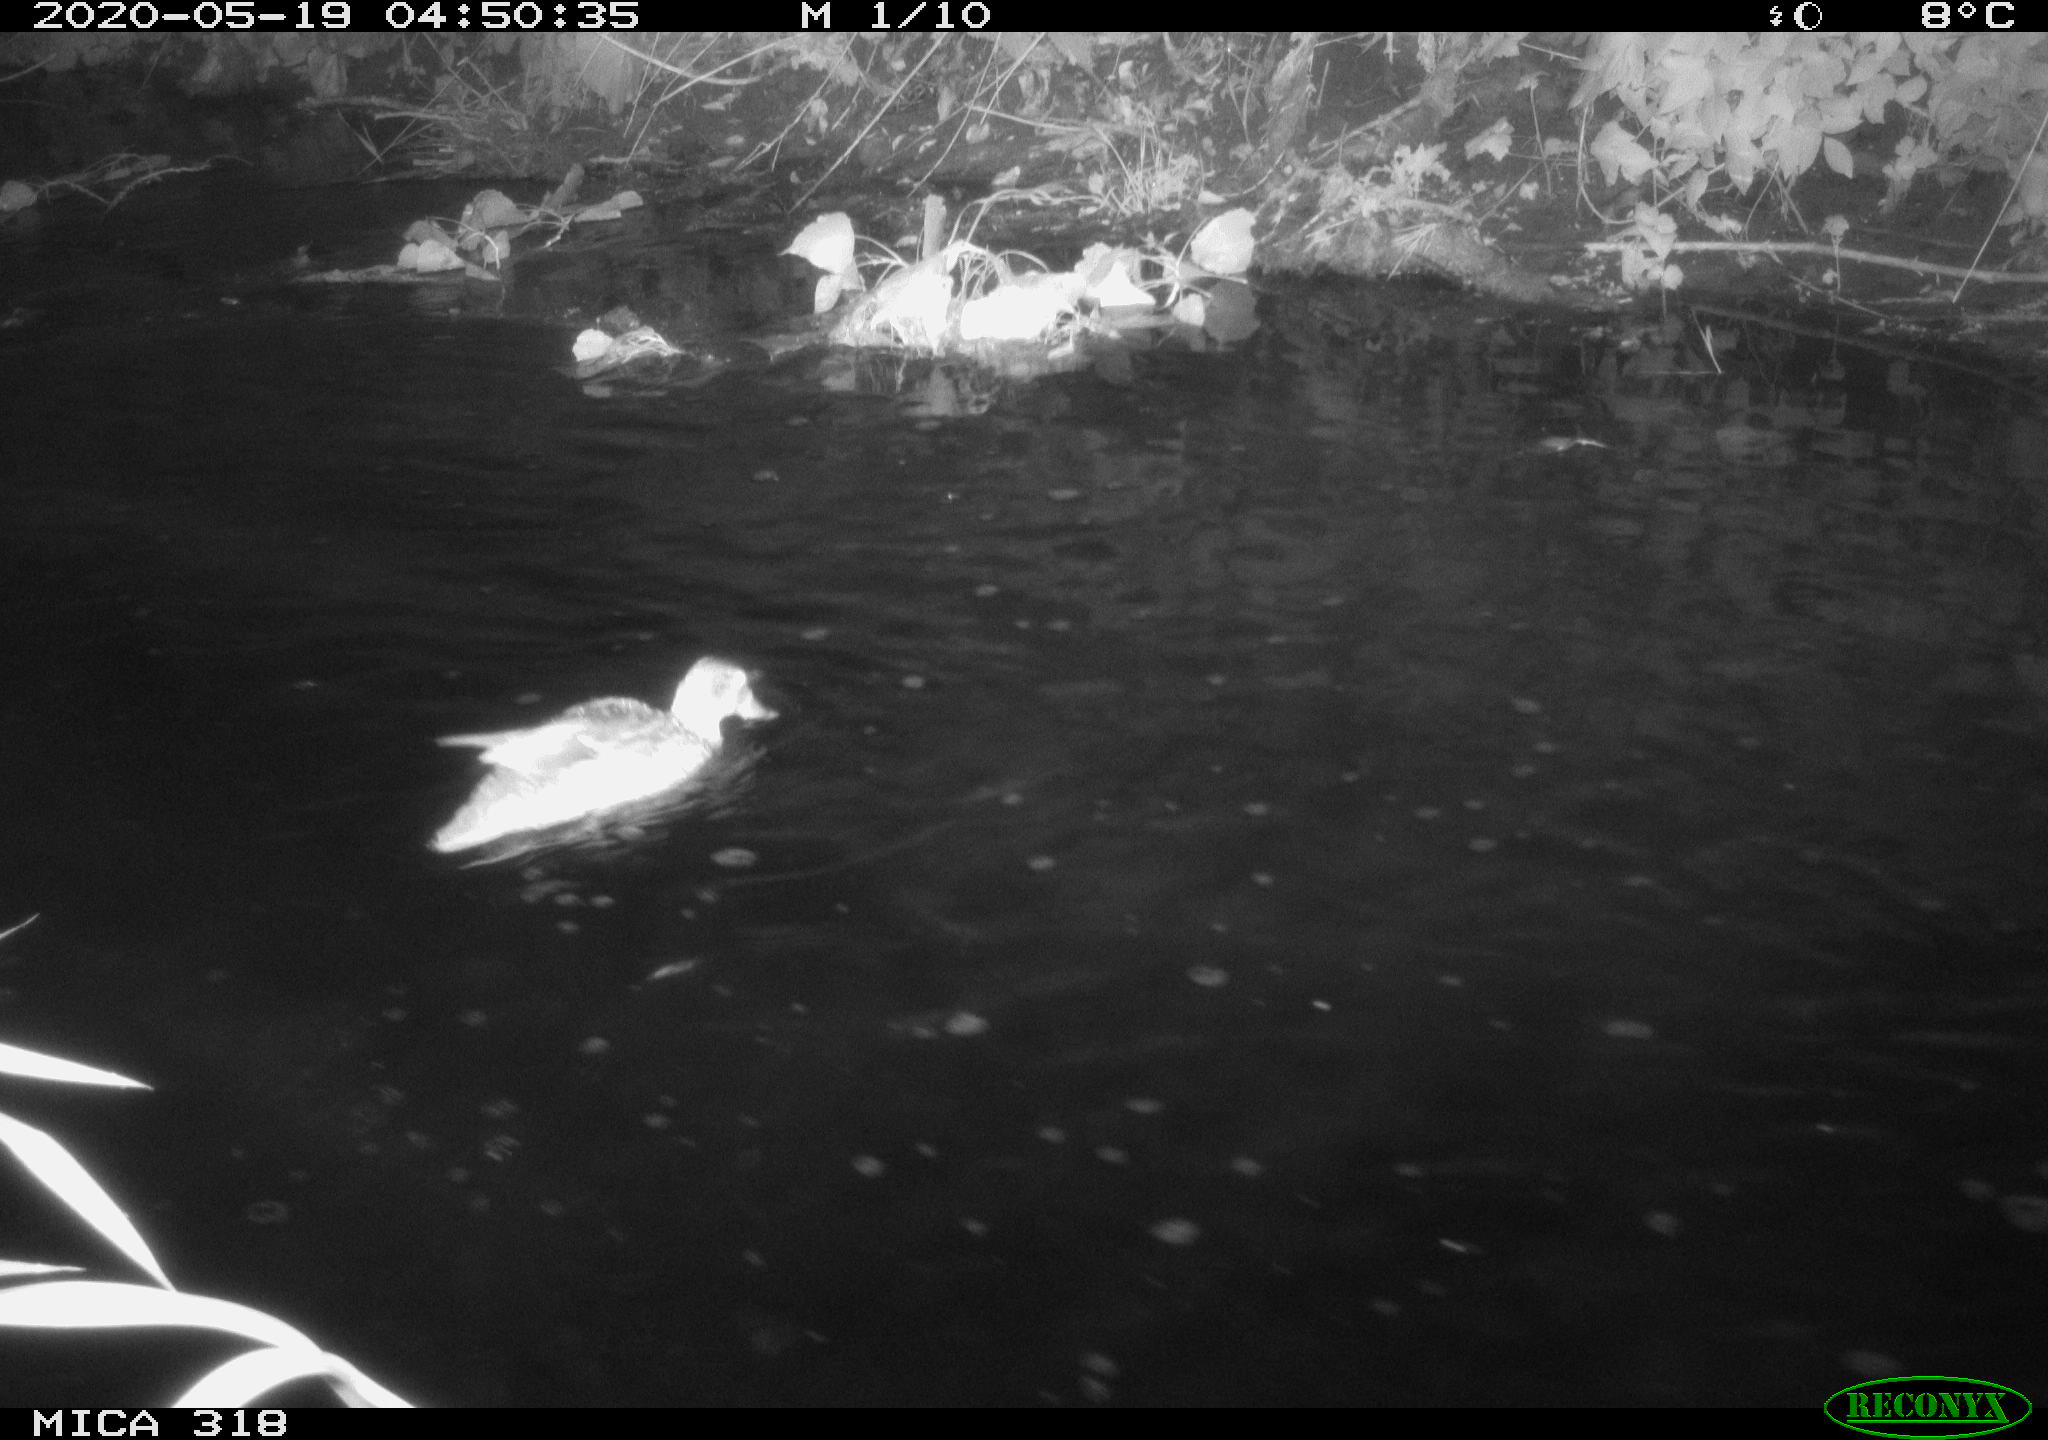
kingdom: Animalia
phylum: Chordata
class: Aves
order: Anseriformes
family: Anatidae
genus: Anas
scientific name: Anas platyrhynchos
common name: Mallard
